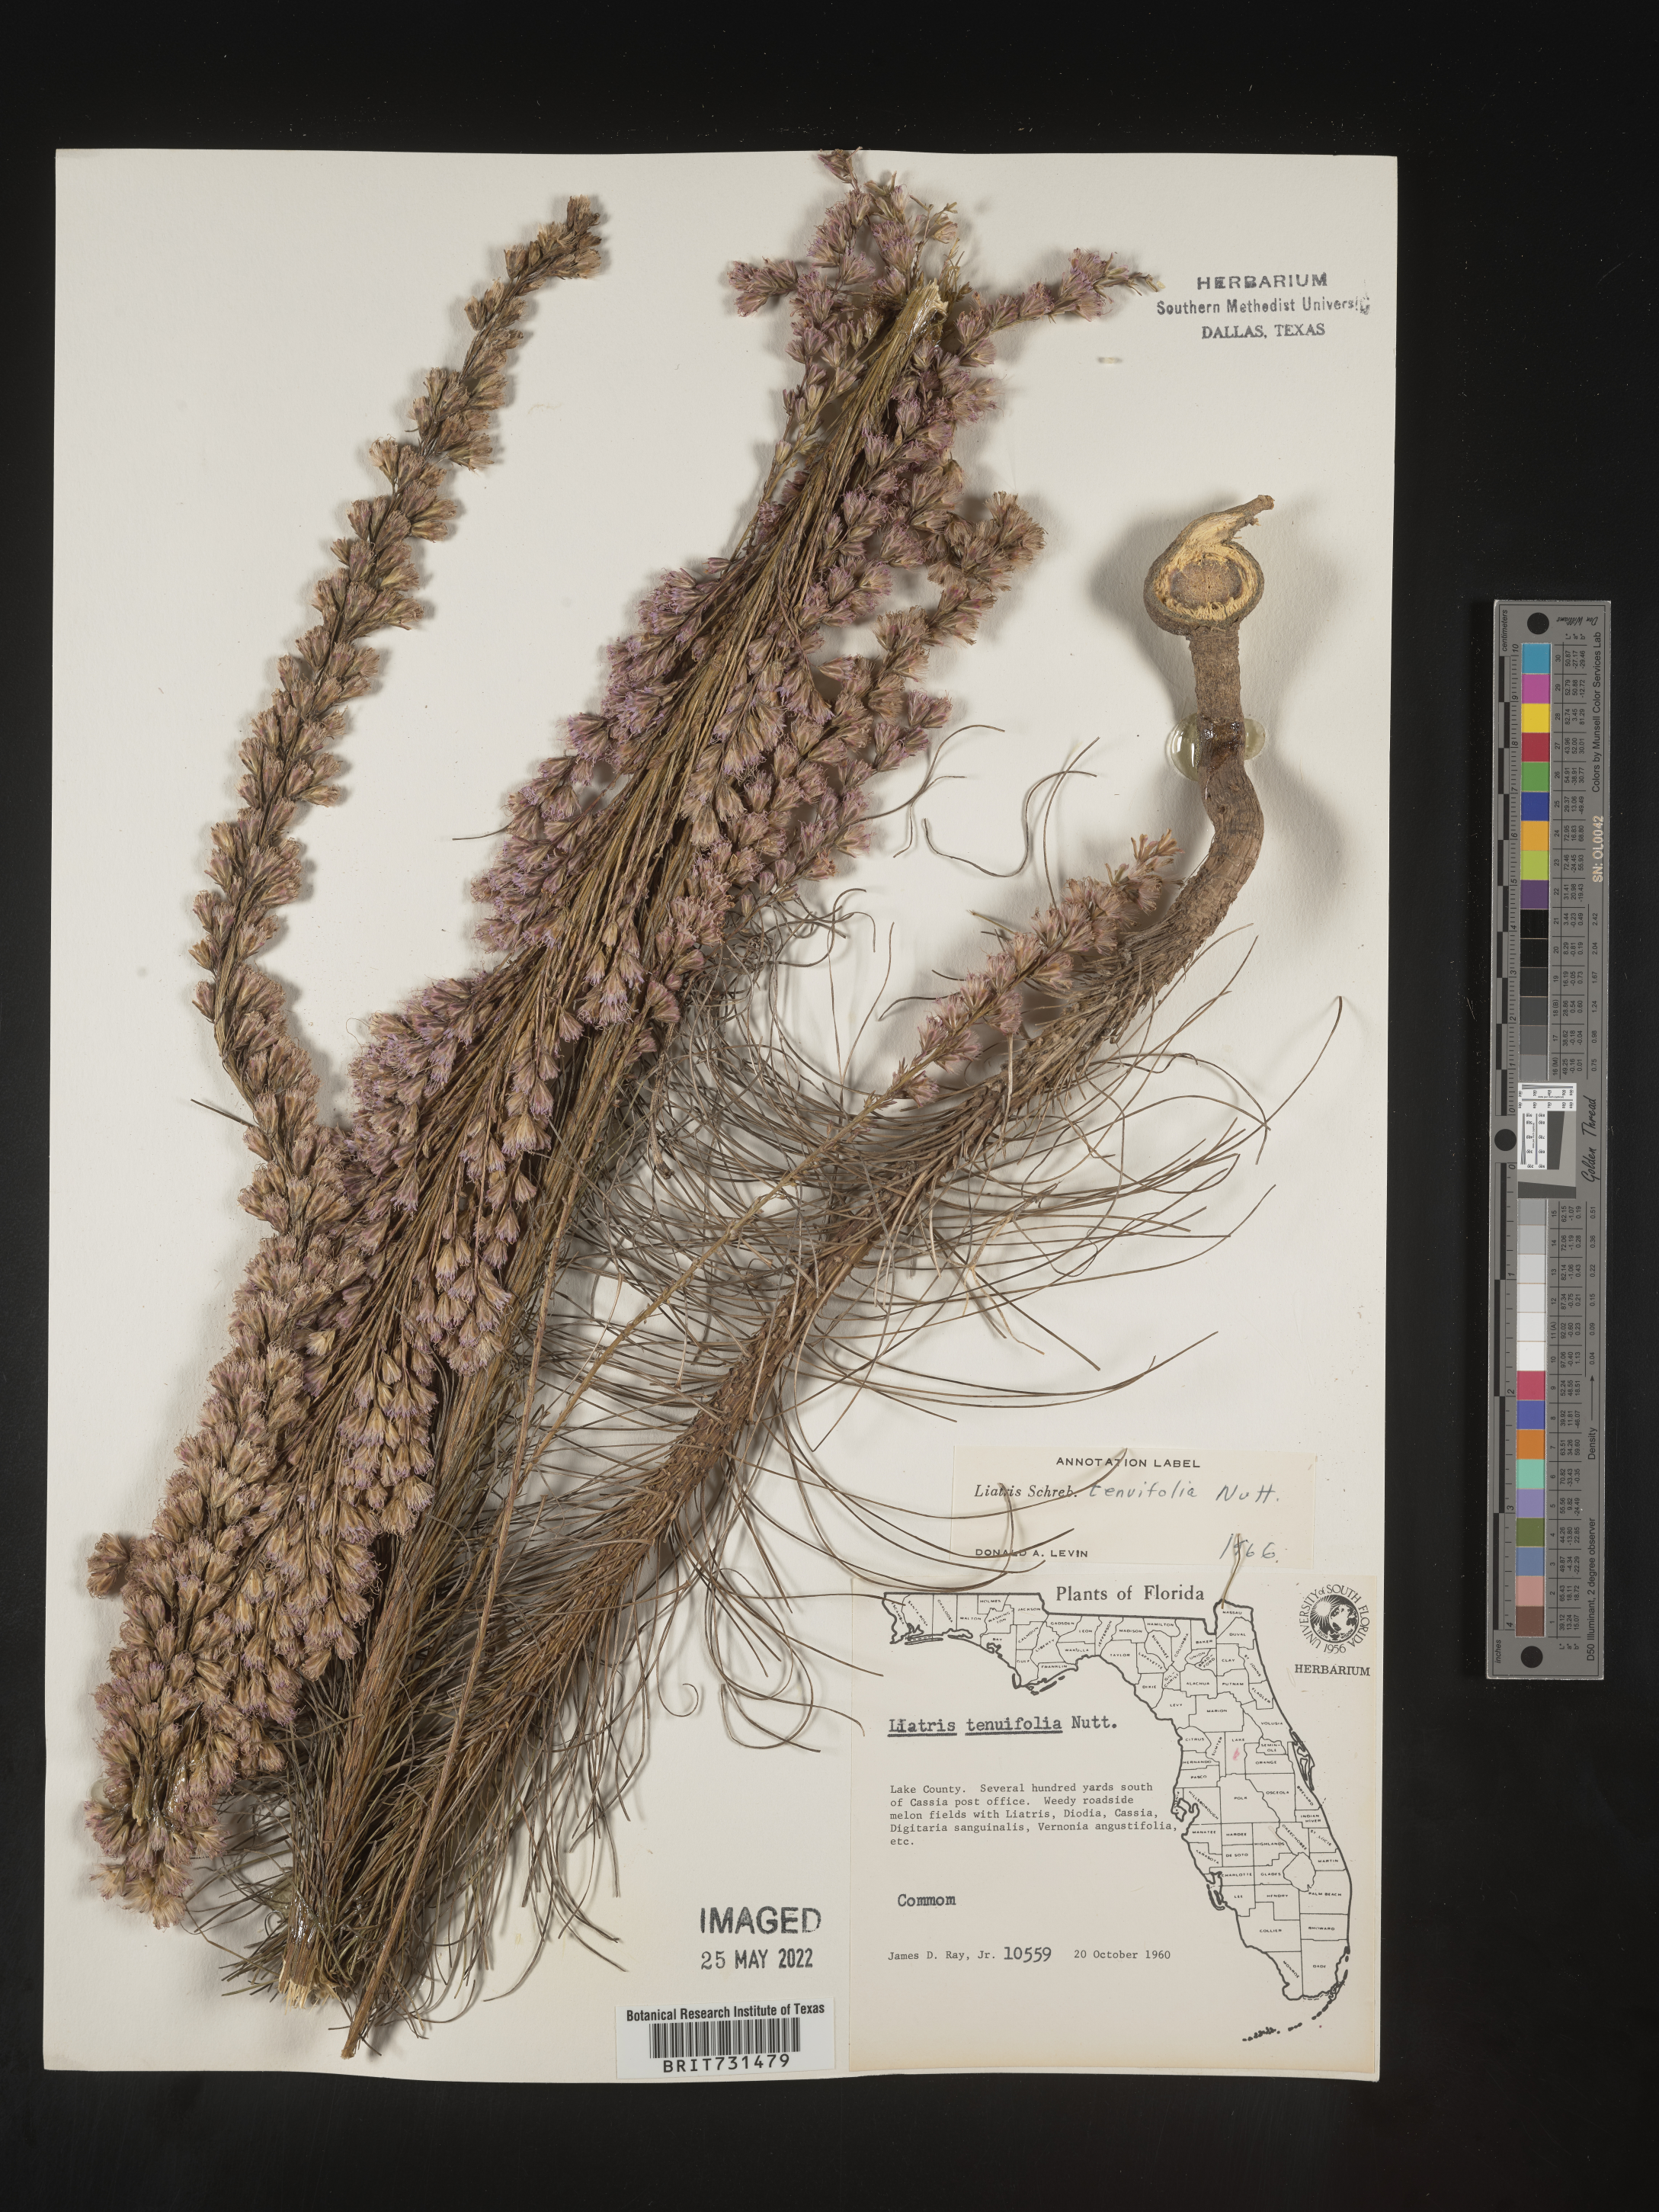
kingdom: Plantae
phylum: Tracheophyta
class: Magnoliopsida
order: Asterales
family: Asteraceae
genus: Liatris
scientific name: Liatris tenuifolia
